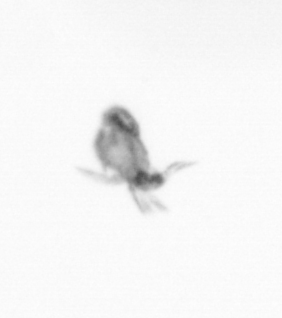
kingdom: Animalia
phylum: Arthropoda
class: Copepoda
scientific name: Copepoda
